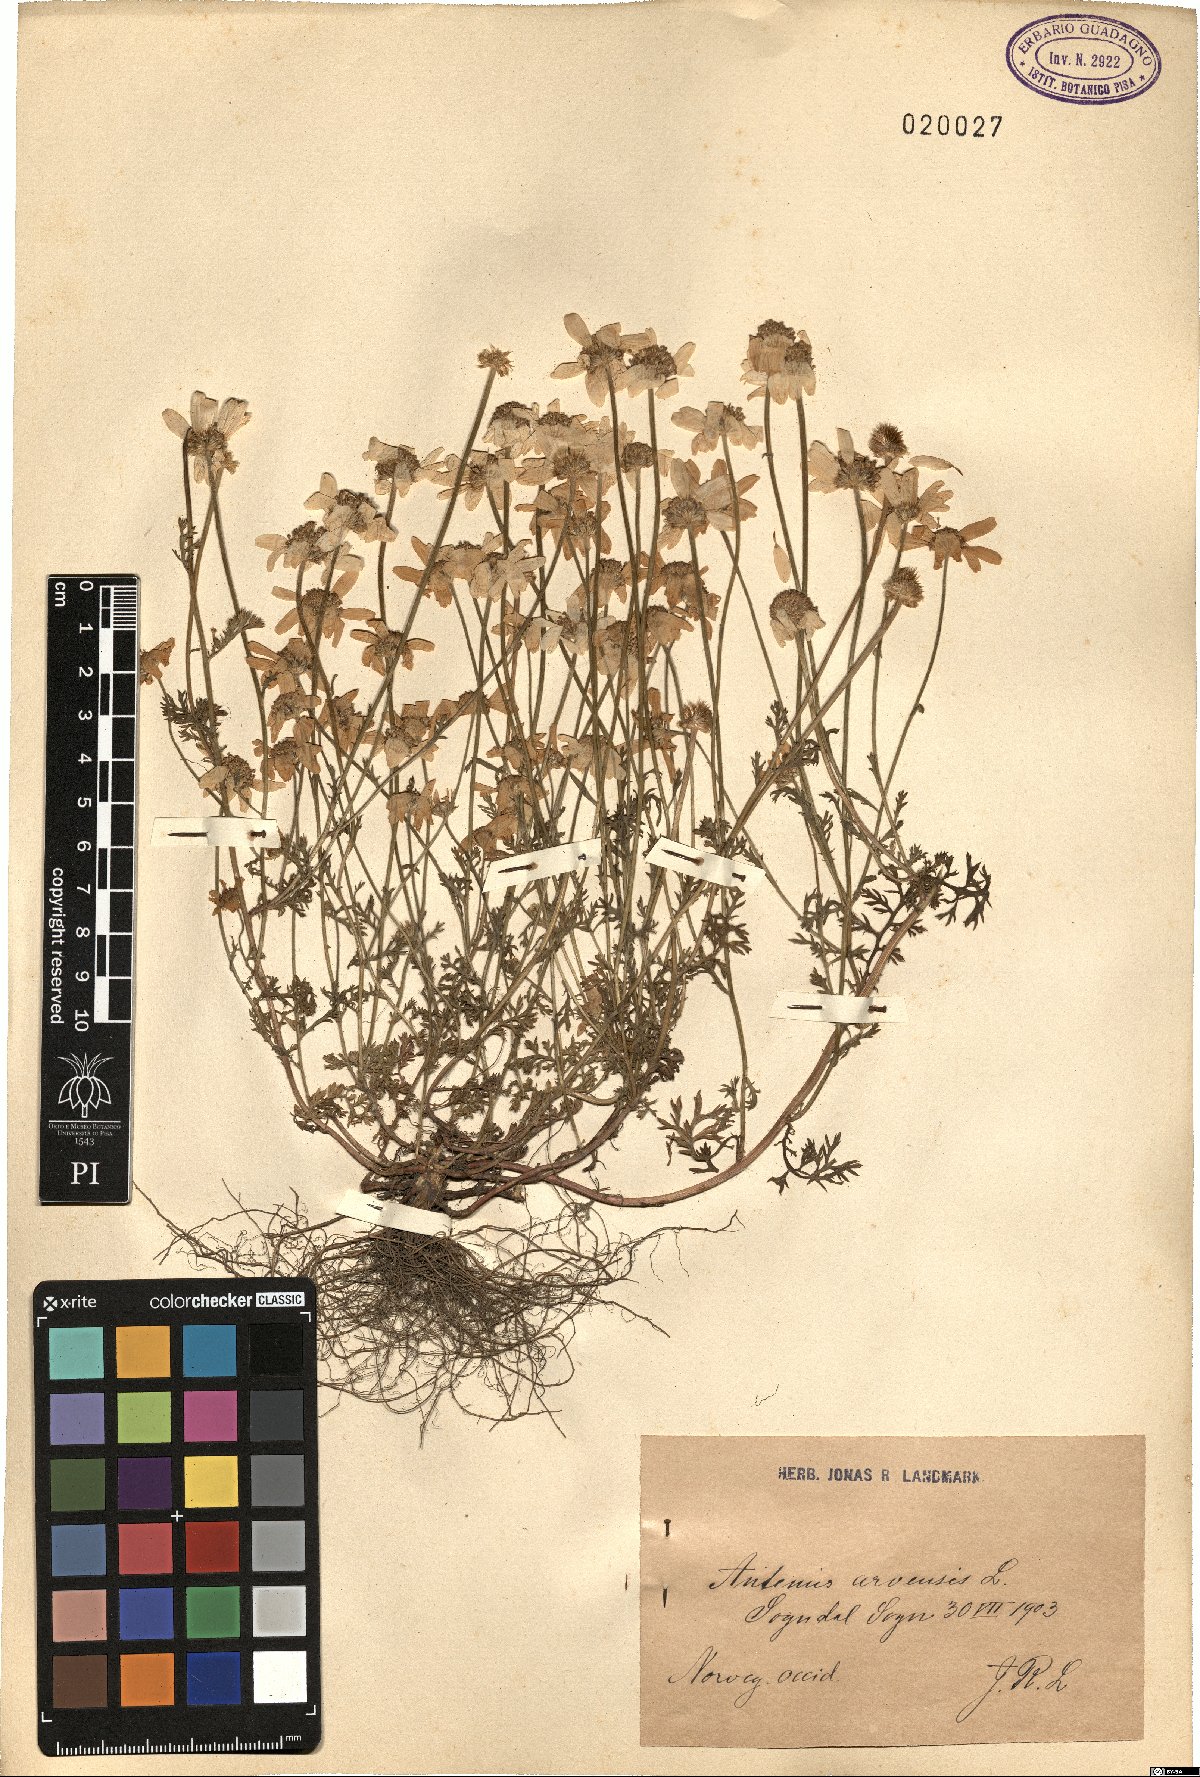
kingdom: Plantae
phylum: Tracheophyta
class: Magnoliopsida
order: Asterales
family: Asteraceae
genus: Anthemis
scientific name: Anthemis arvensis
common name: Corn chamomile
